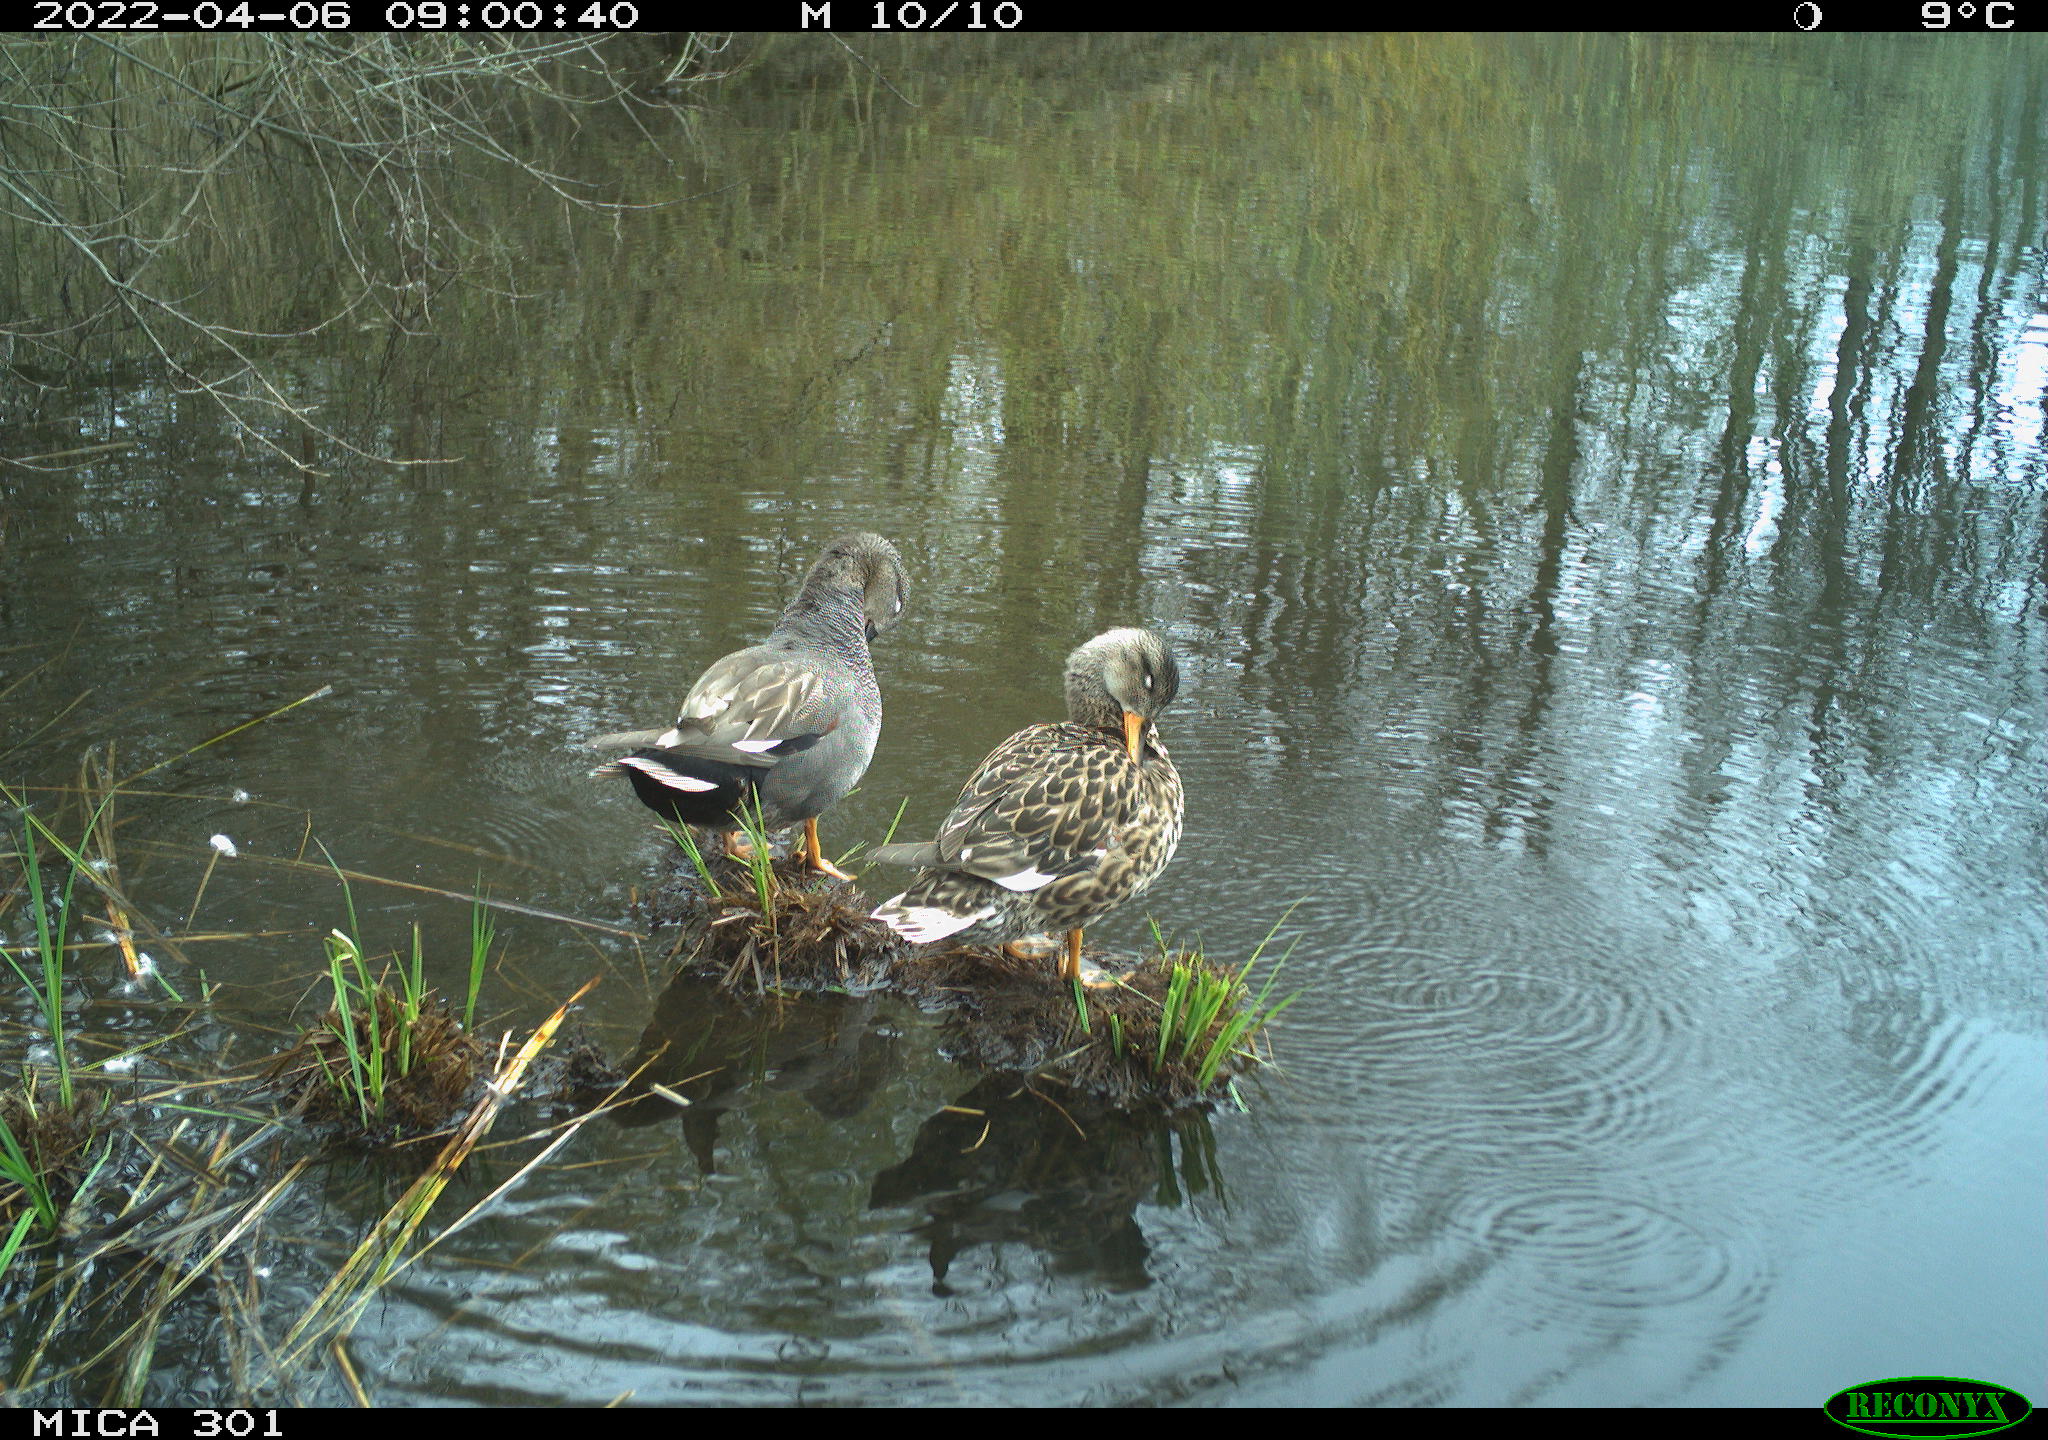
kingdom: Animalia
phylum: Chordata
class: Aves
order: Anseriformes
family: Anatidae
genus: Anas
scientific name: Anas platyrhynchos
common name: Mallard
